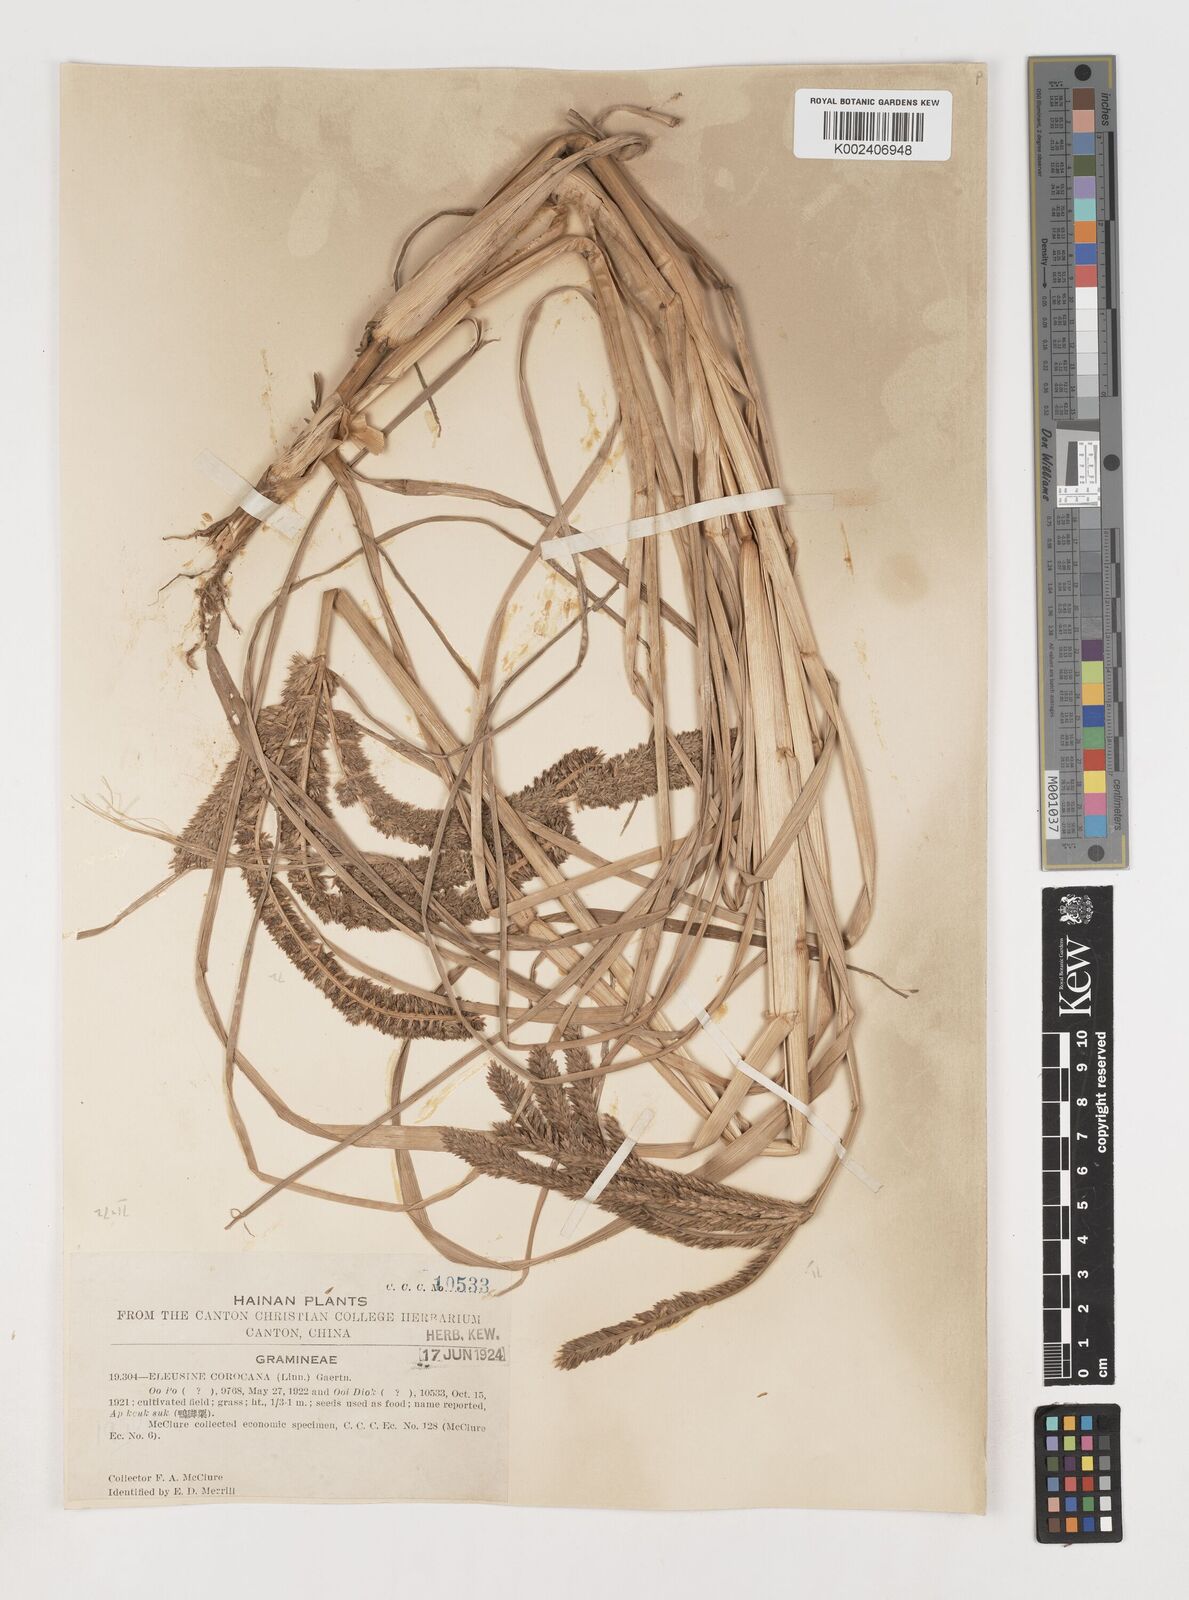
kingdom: Plantae
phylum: Tracheophyta
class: Liliopsida
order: Poales
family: Poaceae
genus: Eleusine
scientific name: Eleusine coracana
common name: Finger millet
